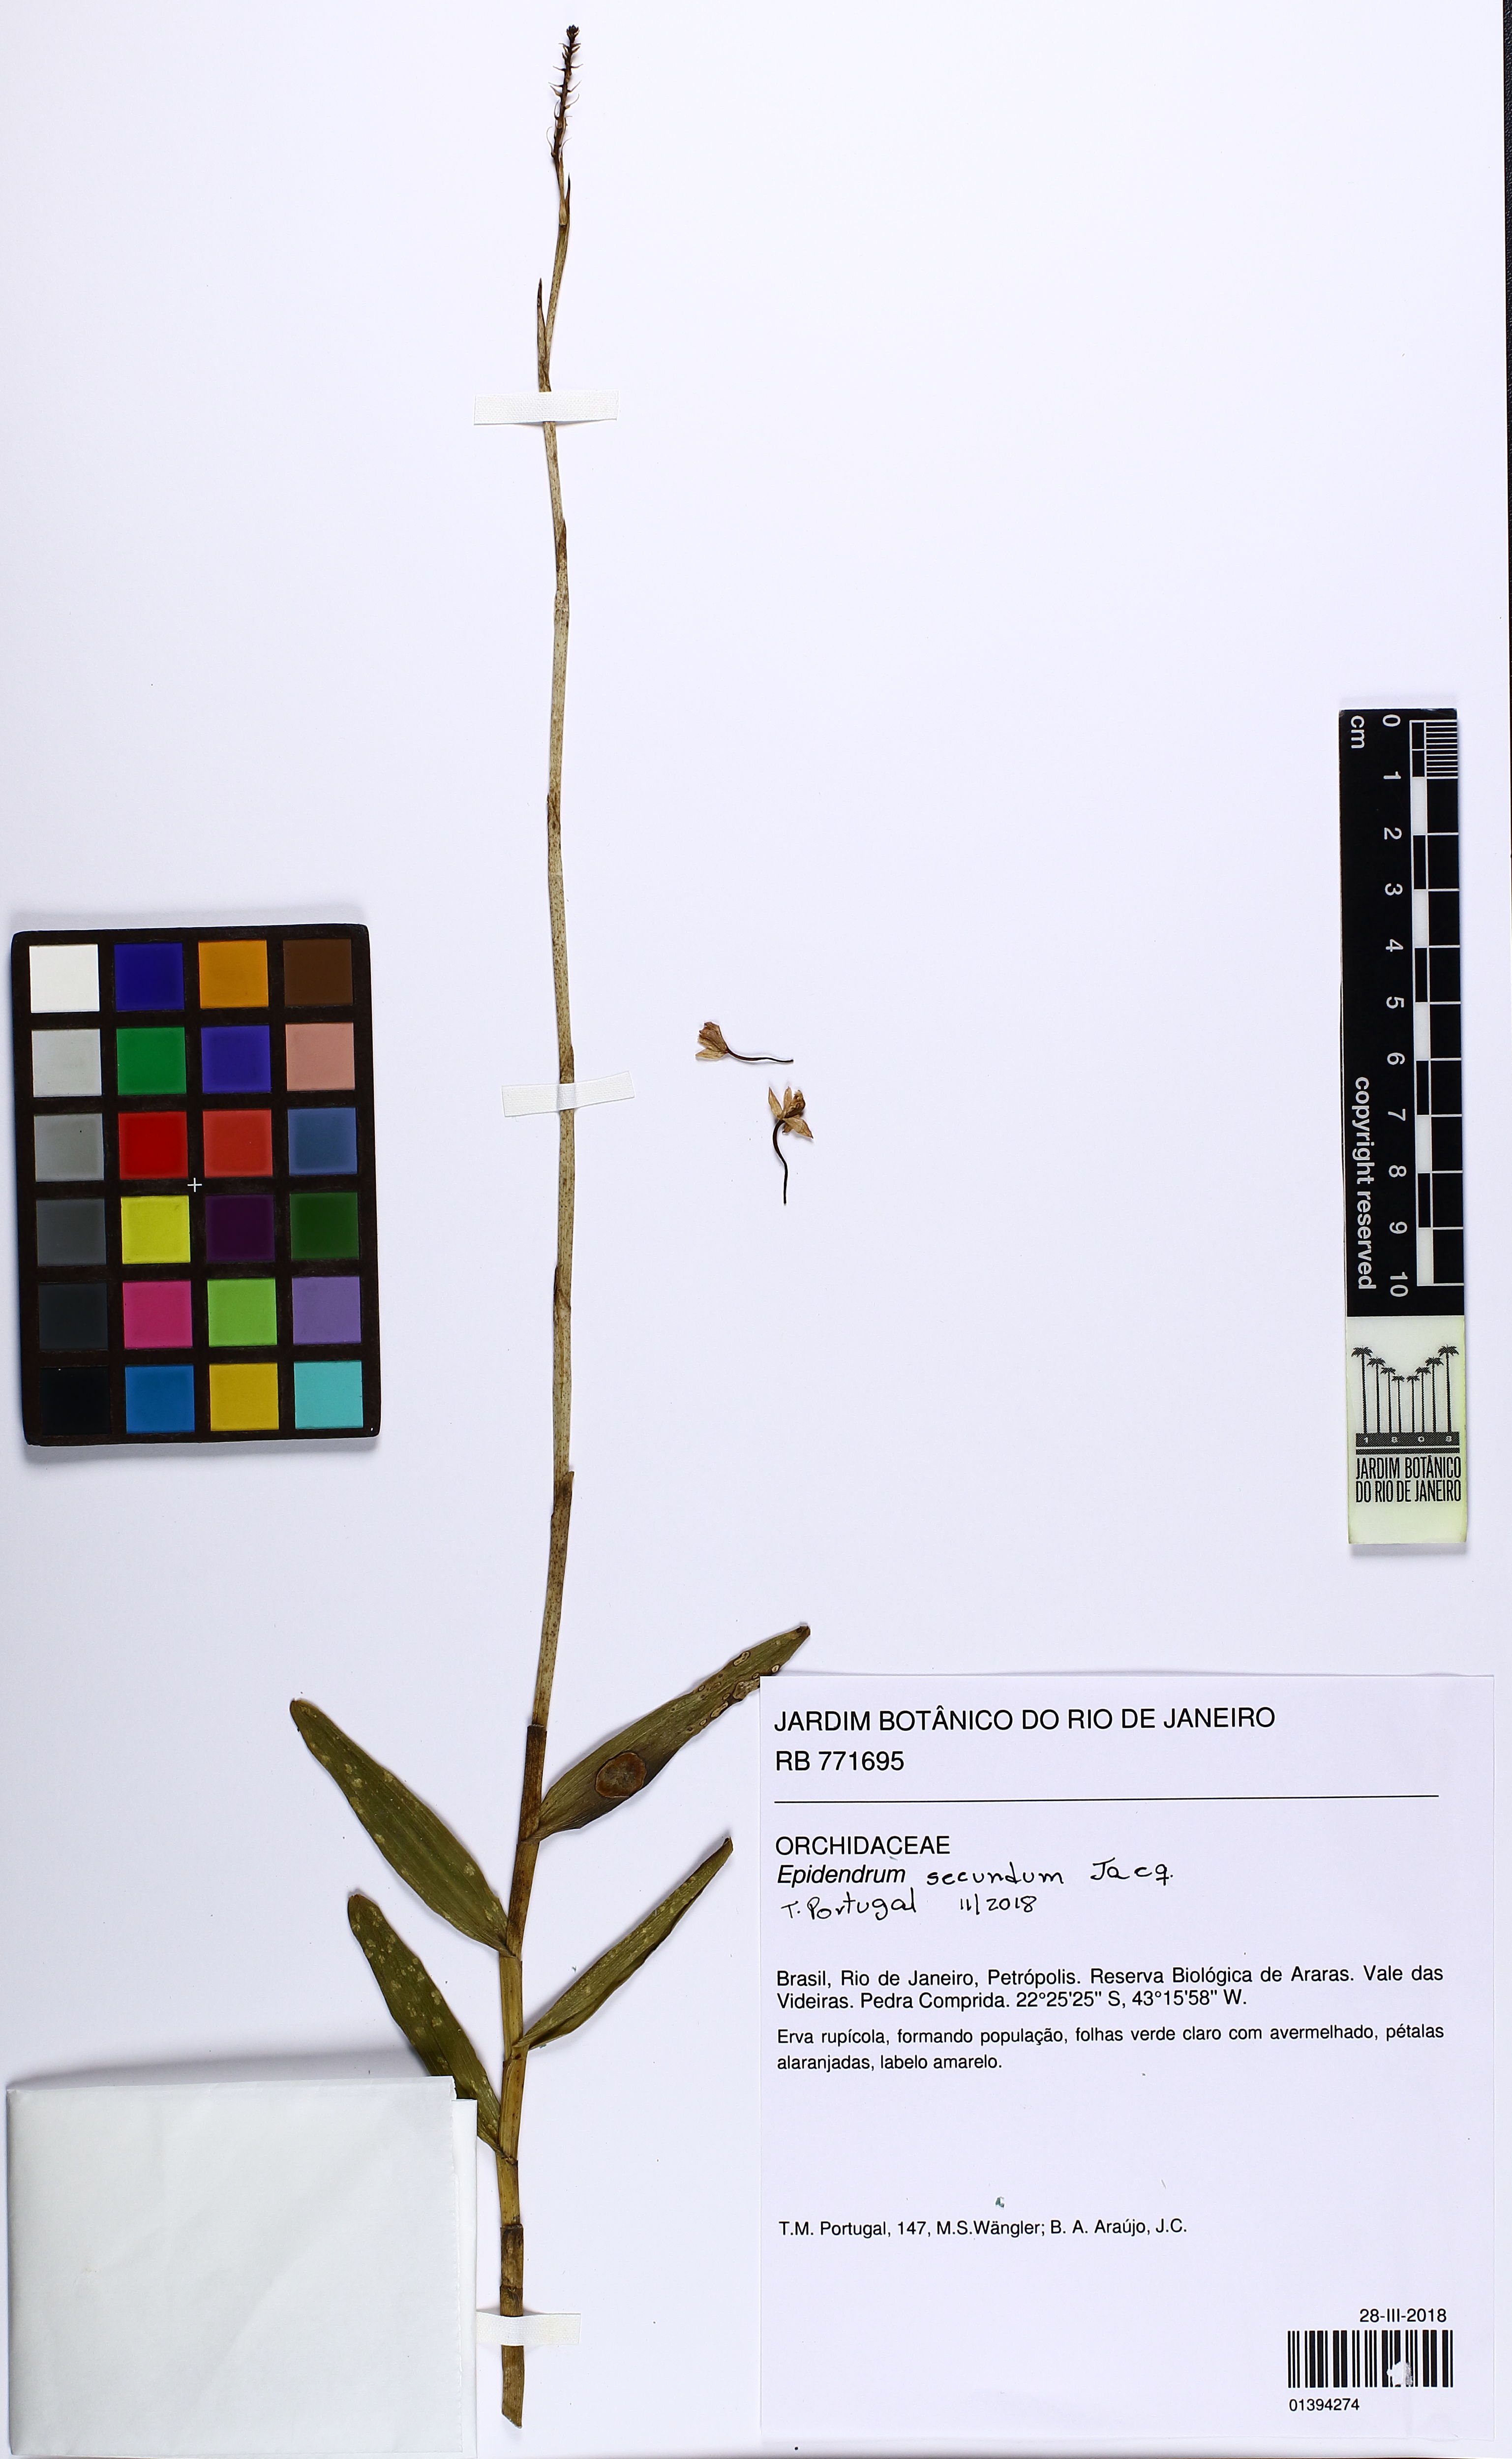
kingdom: Plantae
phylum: Tracheophyta
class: Liliopsida
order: Asparagales
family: Orchidaceae
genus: Epidendrum
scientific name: Epidendrum secundum
